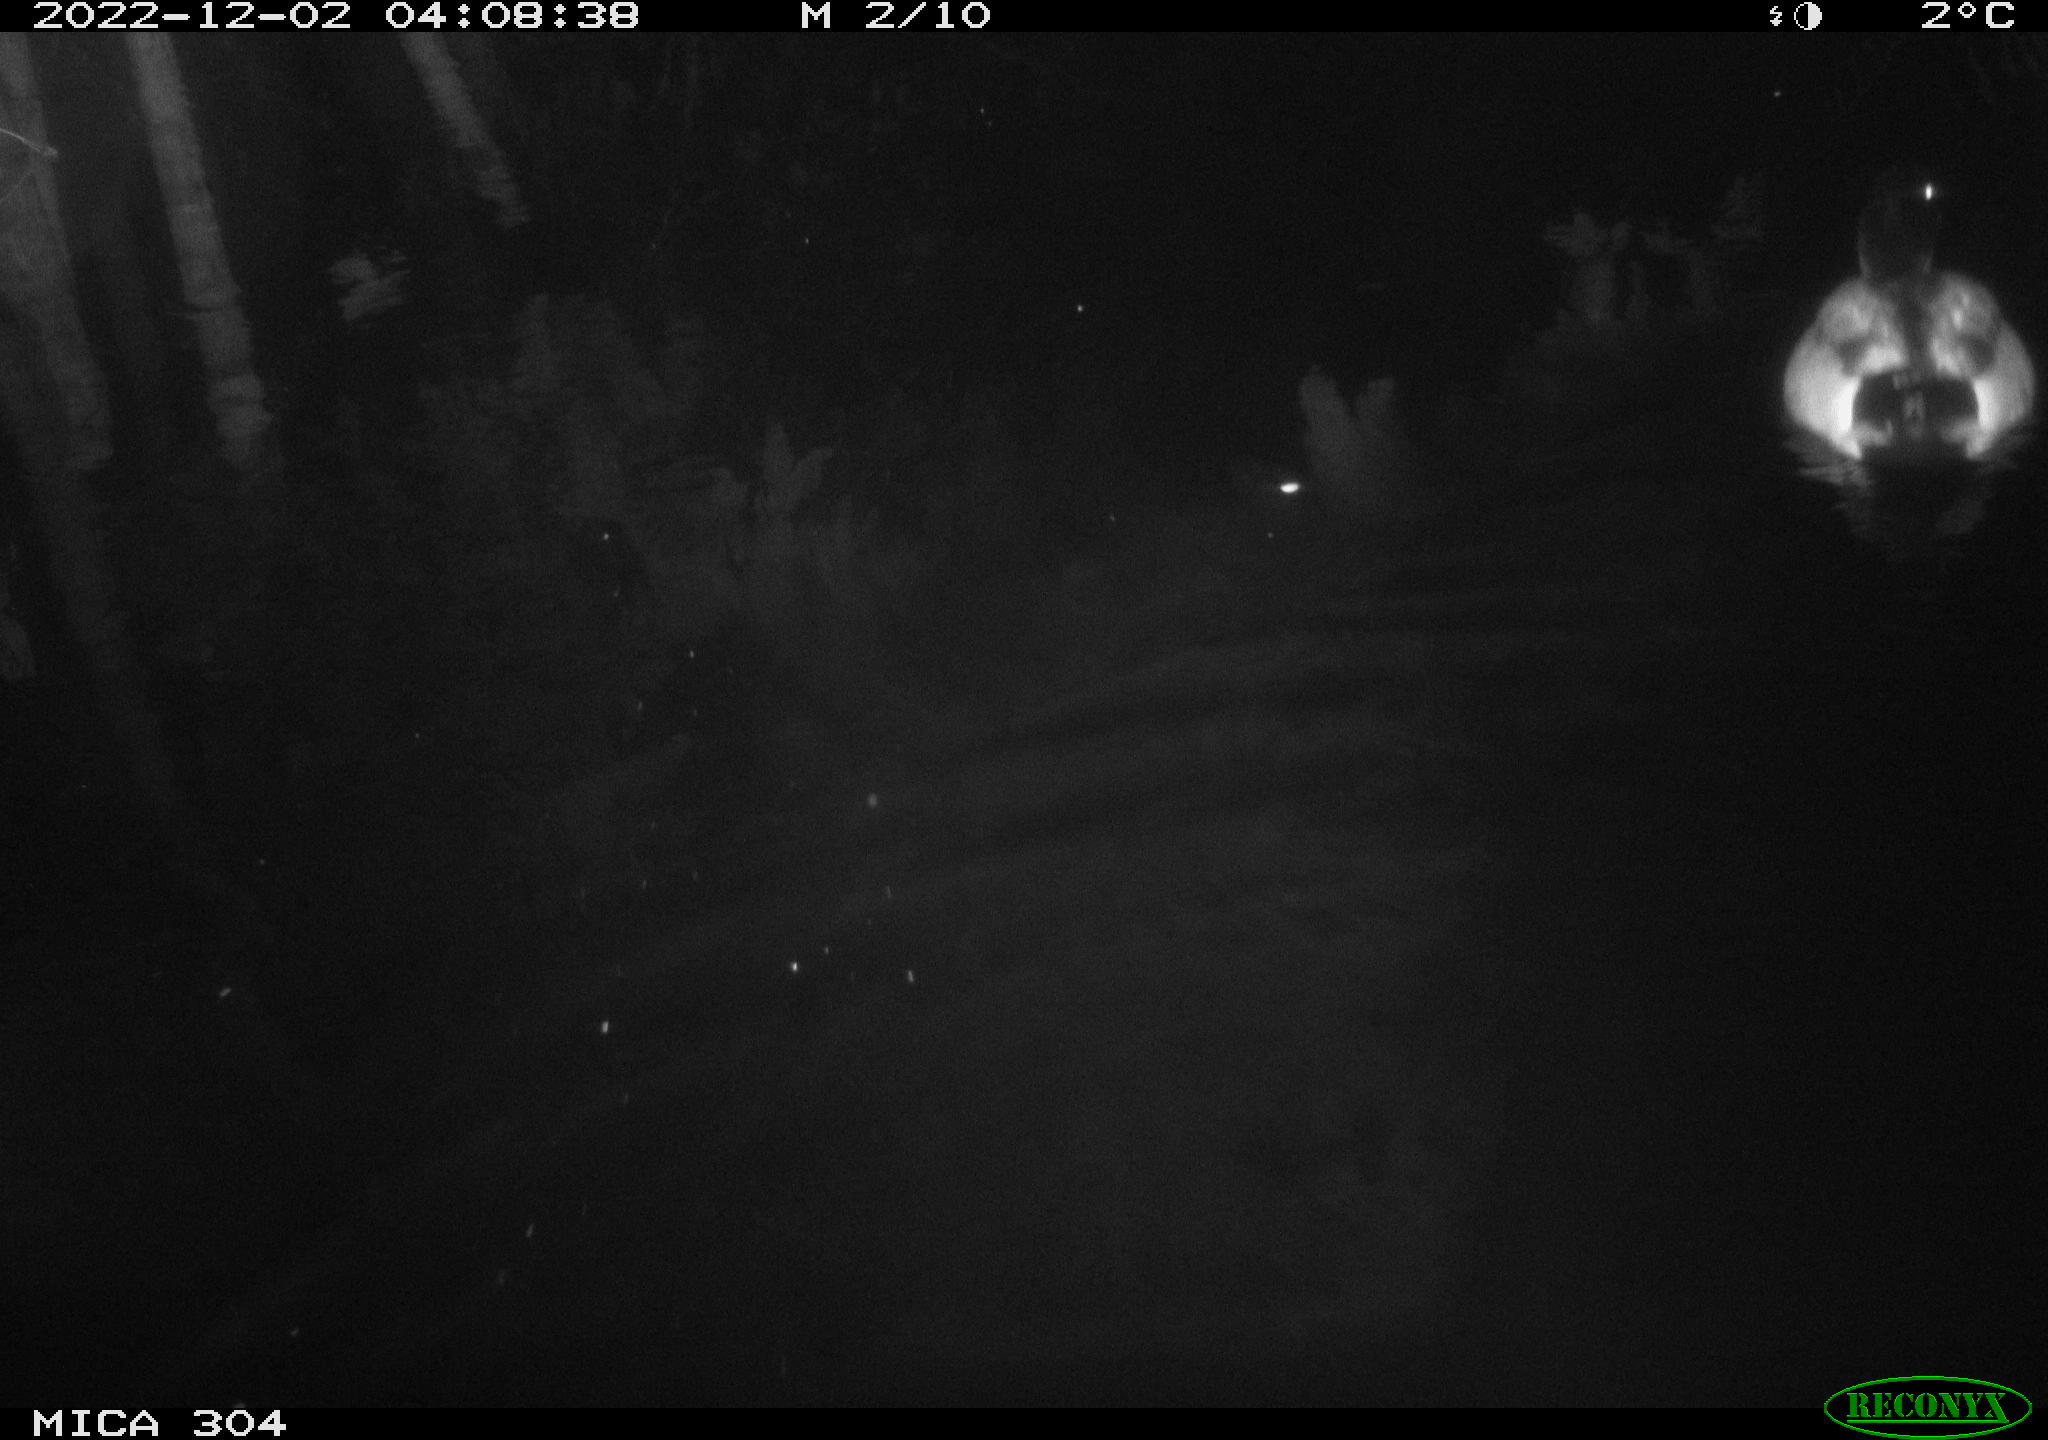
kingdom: Animalia
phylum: Chordata
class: Aves
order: Anseriformes
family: Anatidae
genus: Anas
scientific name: Anas
